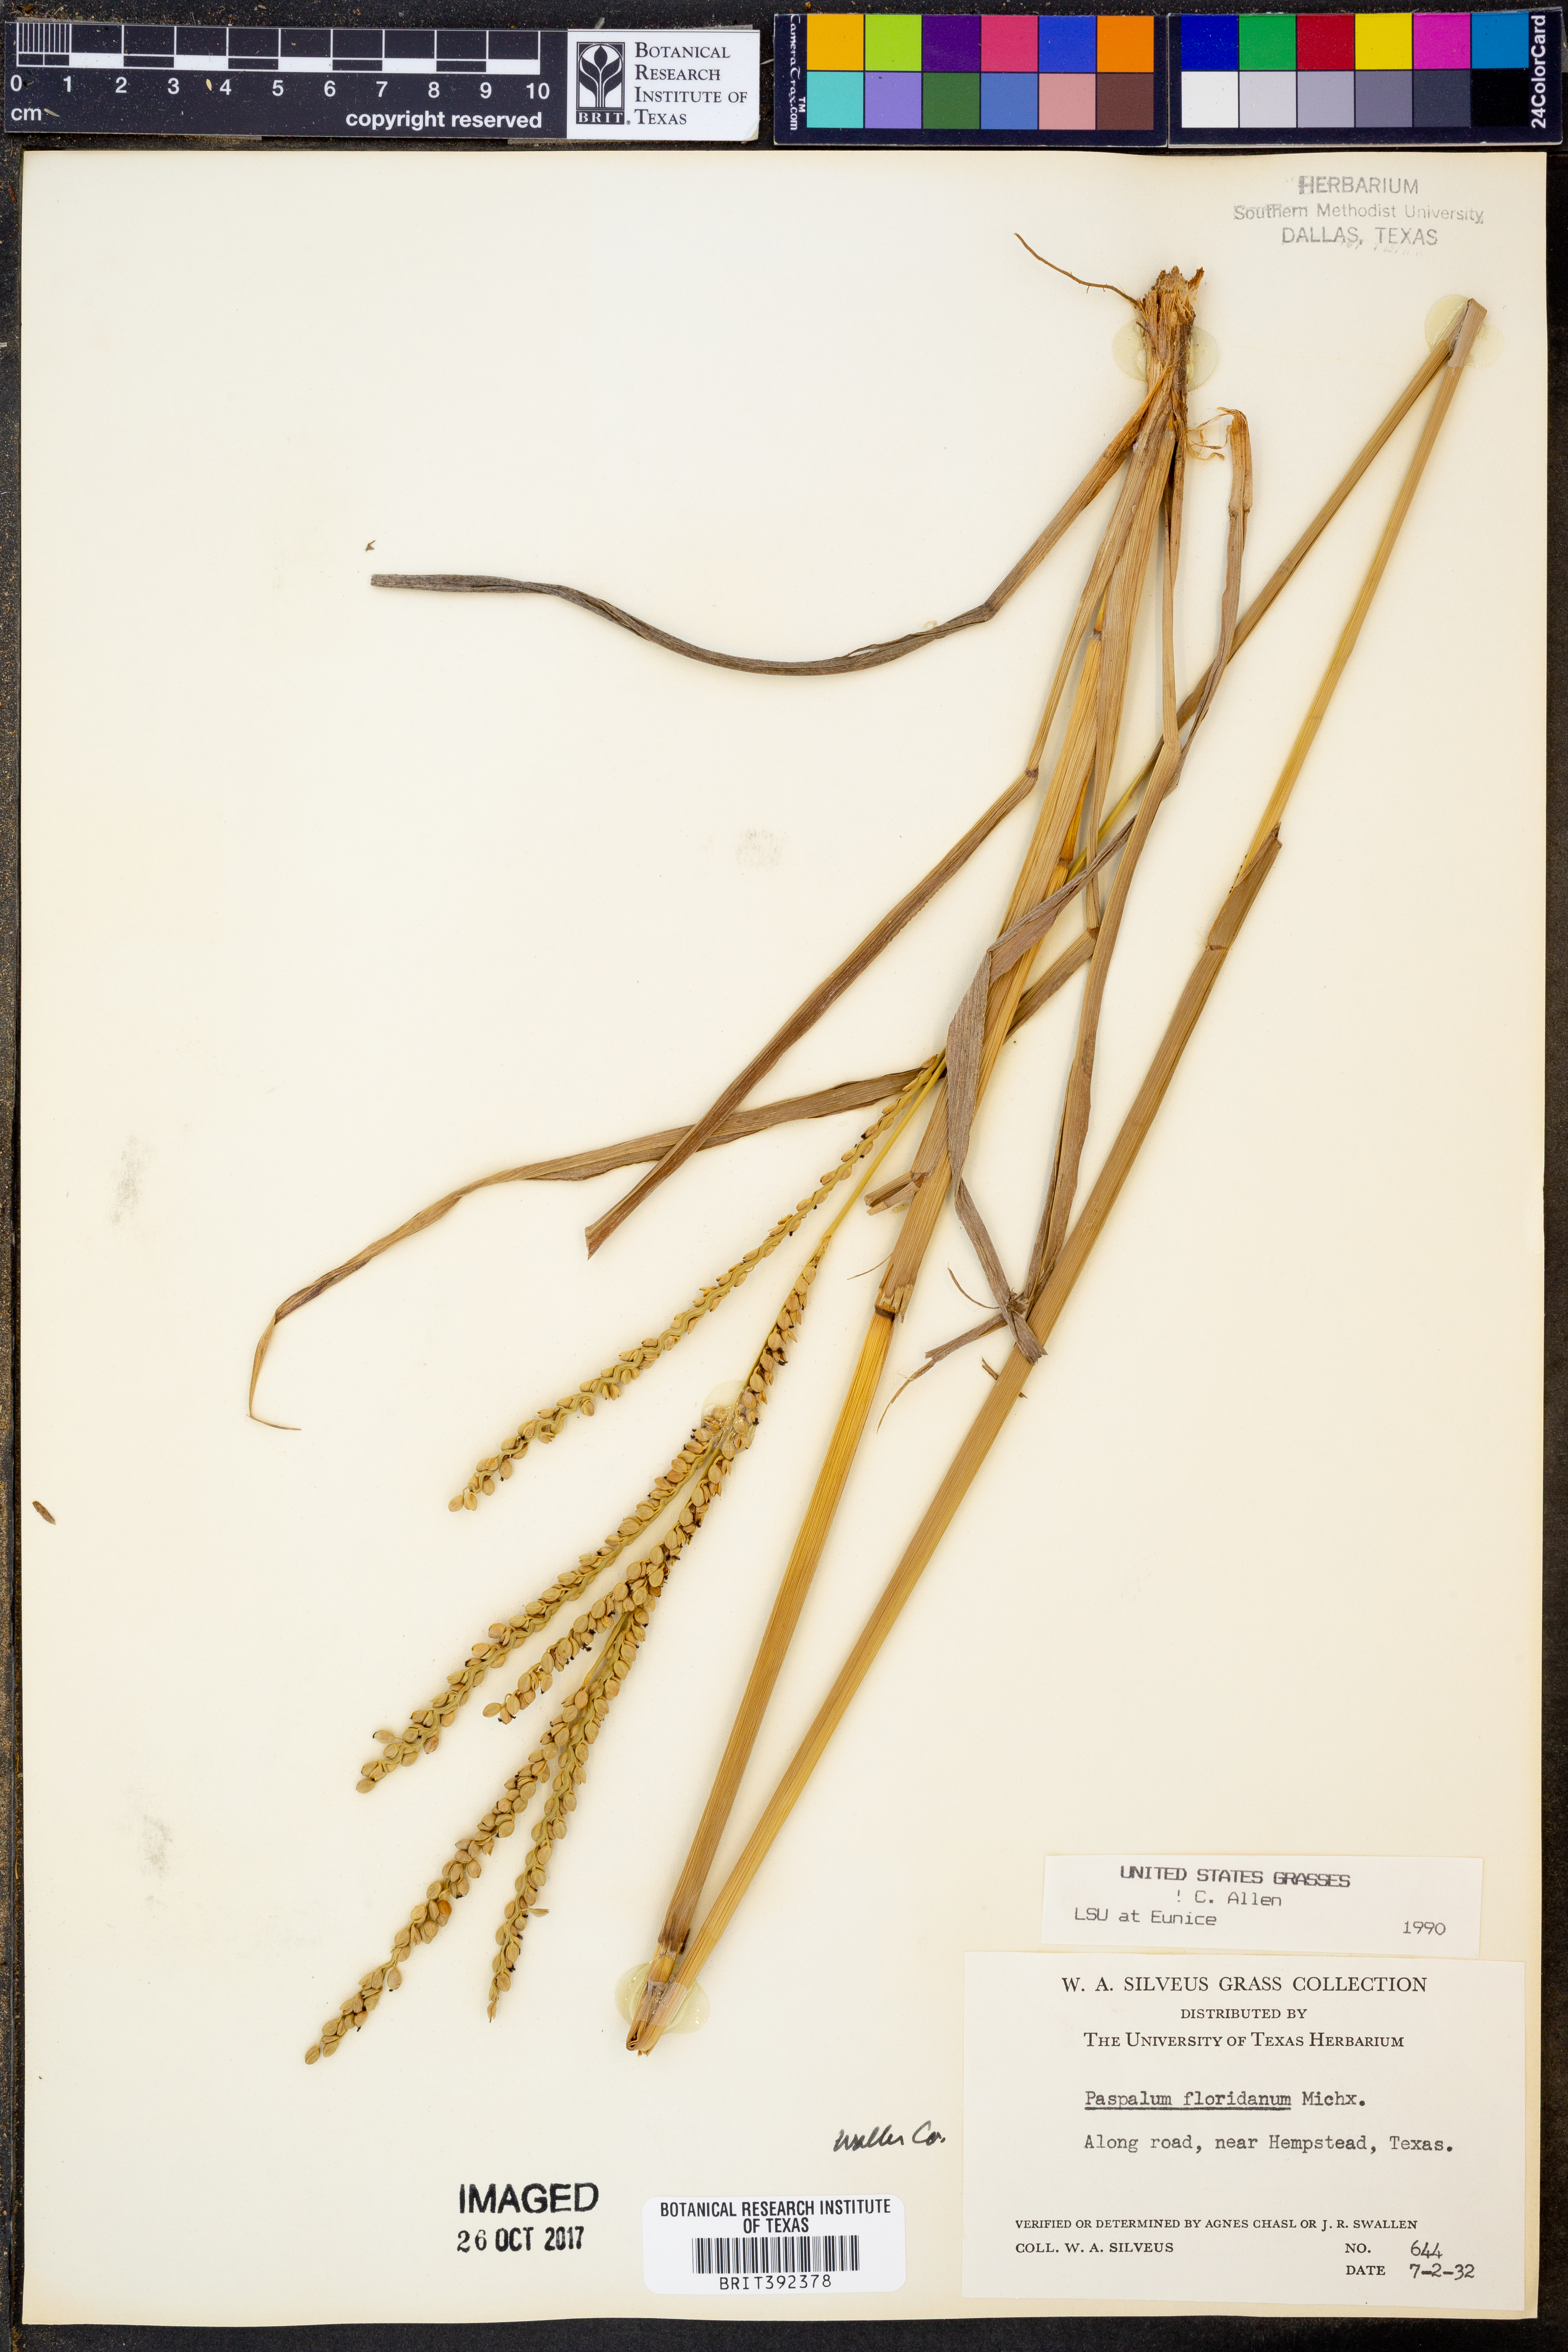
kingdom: Plantae
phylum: Tracheophyta
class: Liliopsida
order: Poales
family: Poaceae
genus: Paspalum
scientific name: Paspalum floridanum
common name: Florida paspalum
